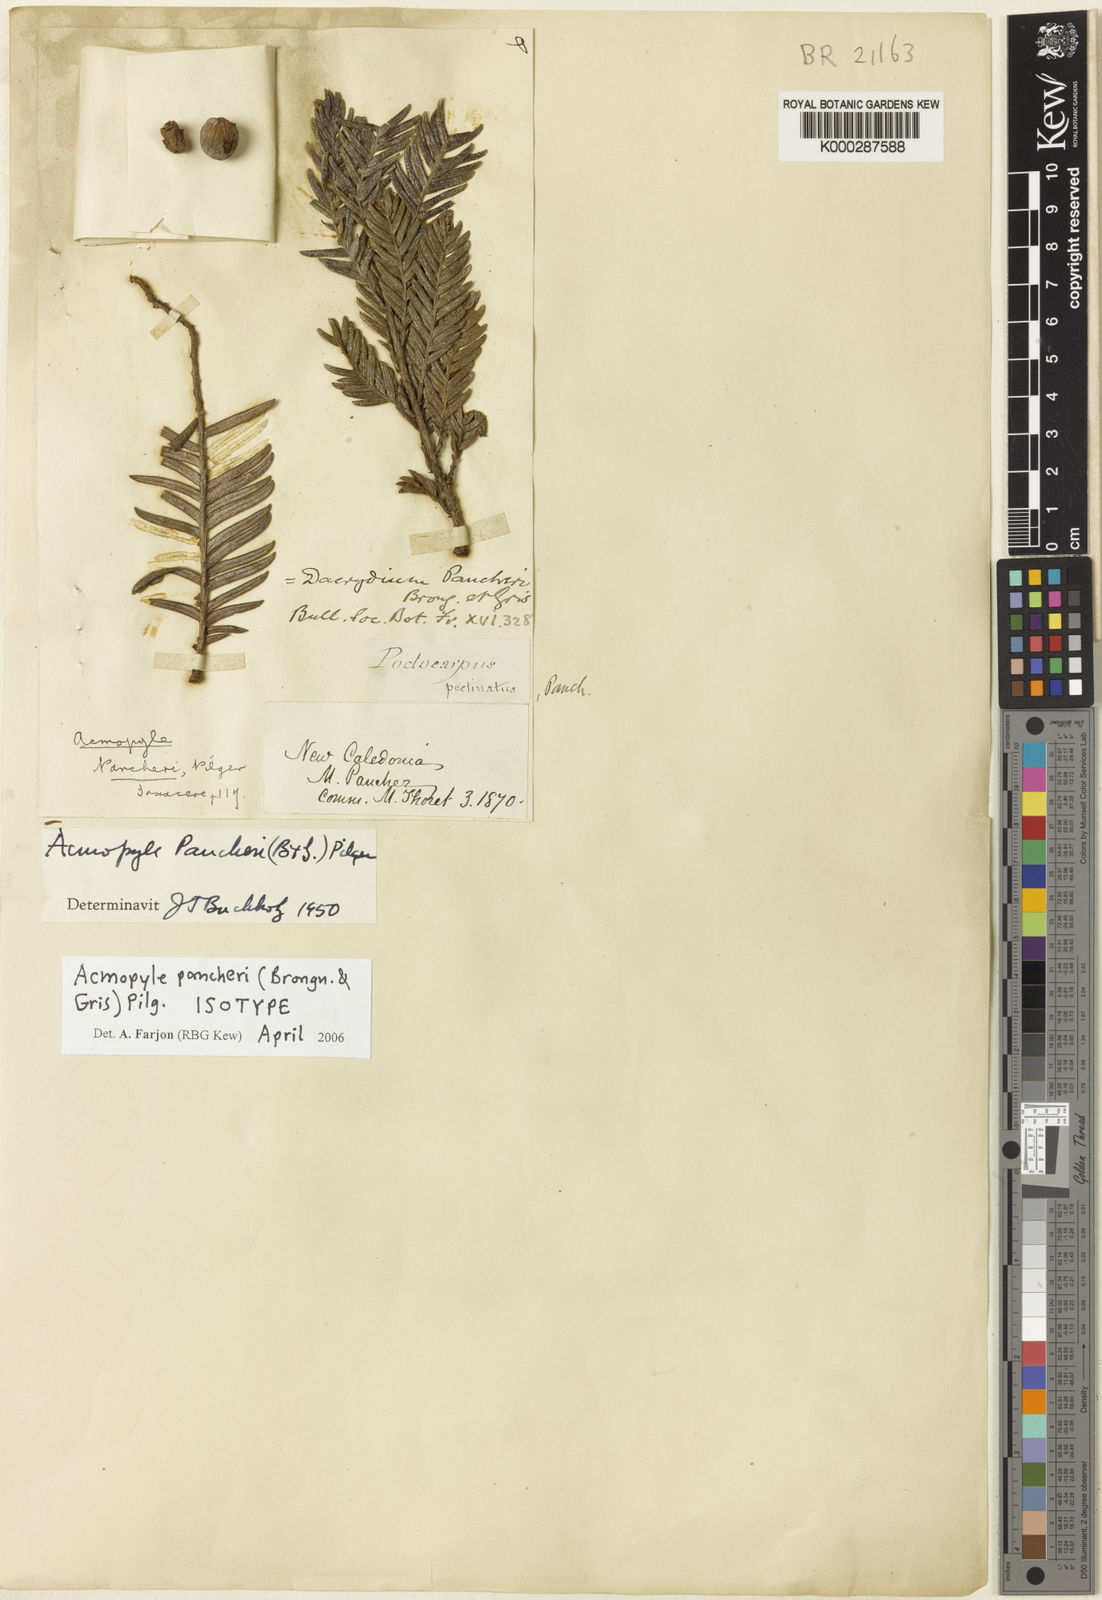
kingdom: Plantae
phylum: Tracheophyta
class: Pinopsida
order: Pinales
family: Podocarpaceae
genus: Acmopyle
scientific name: Acmopyle pancheri
